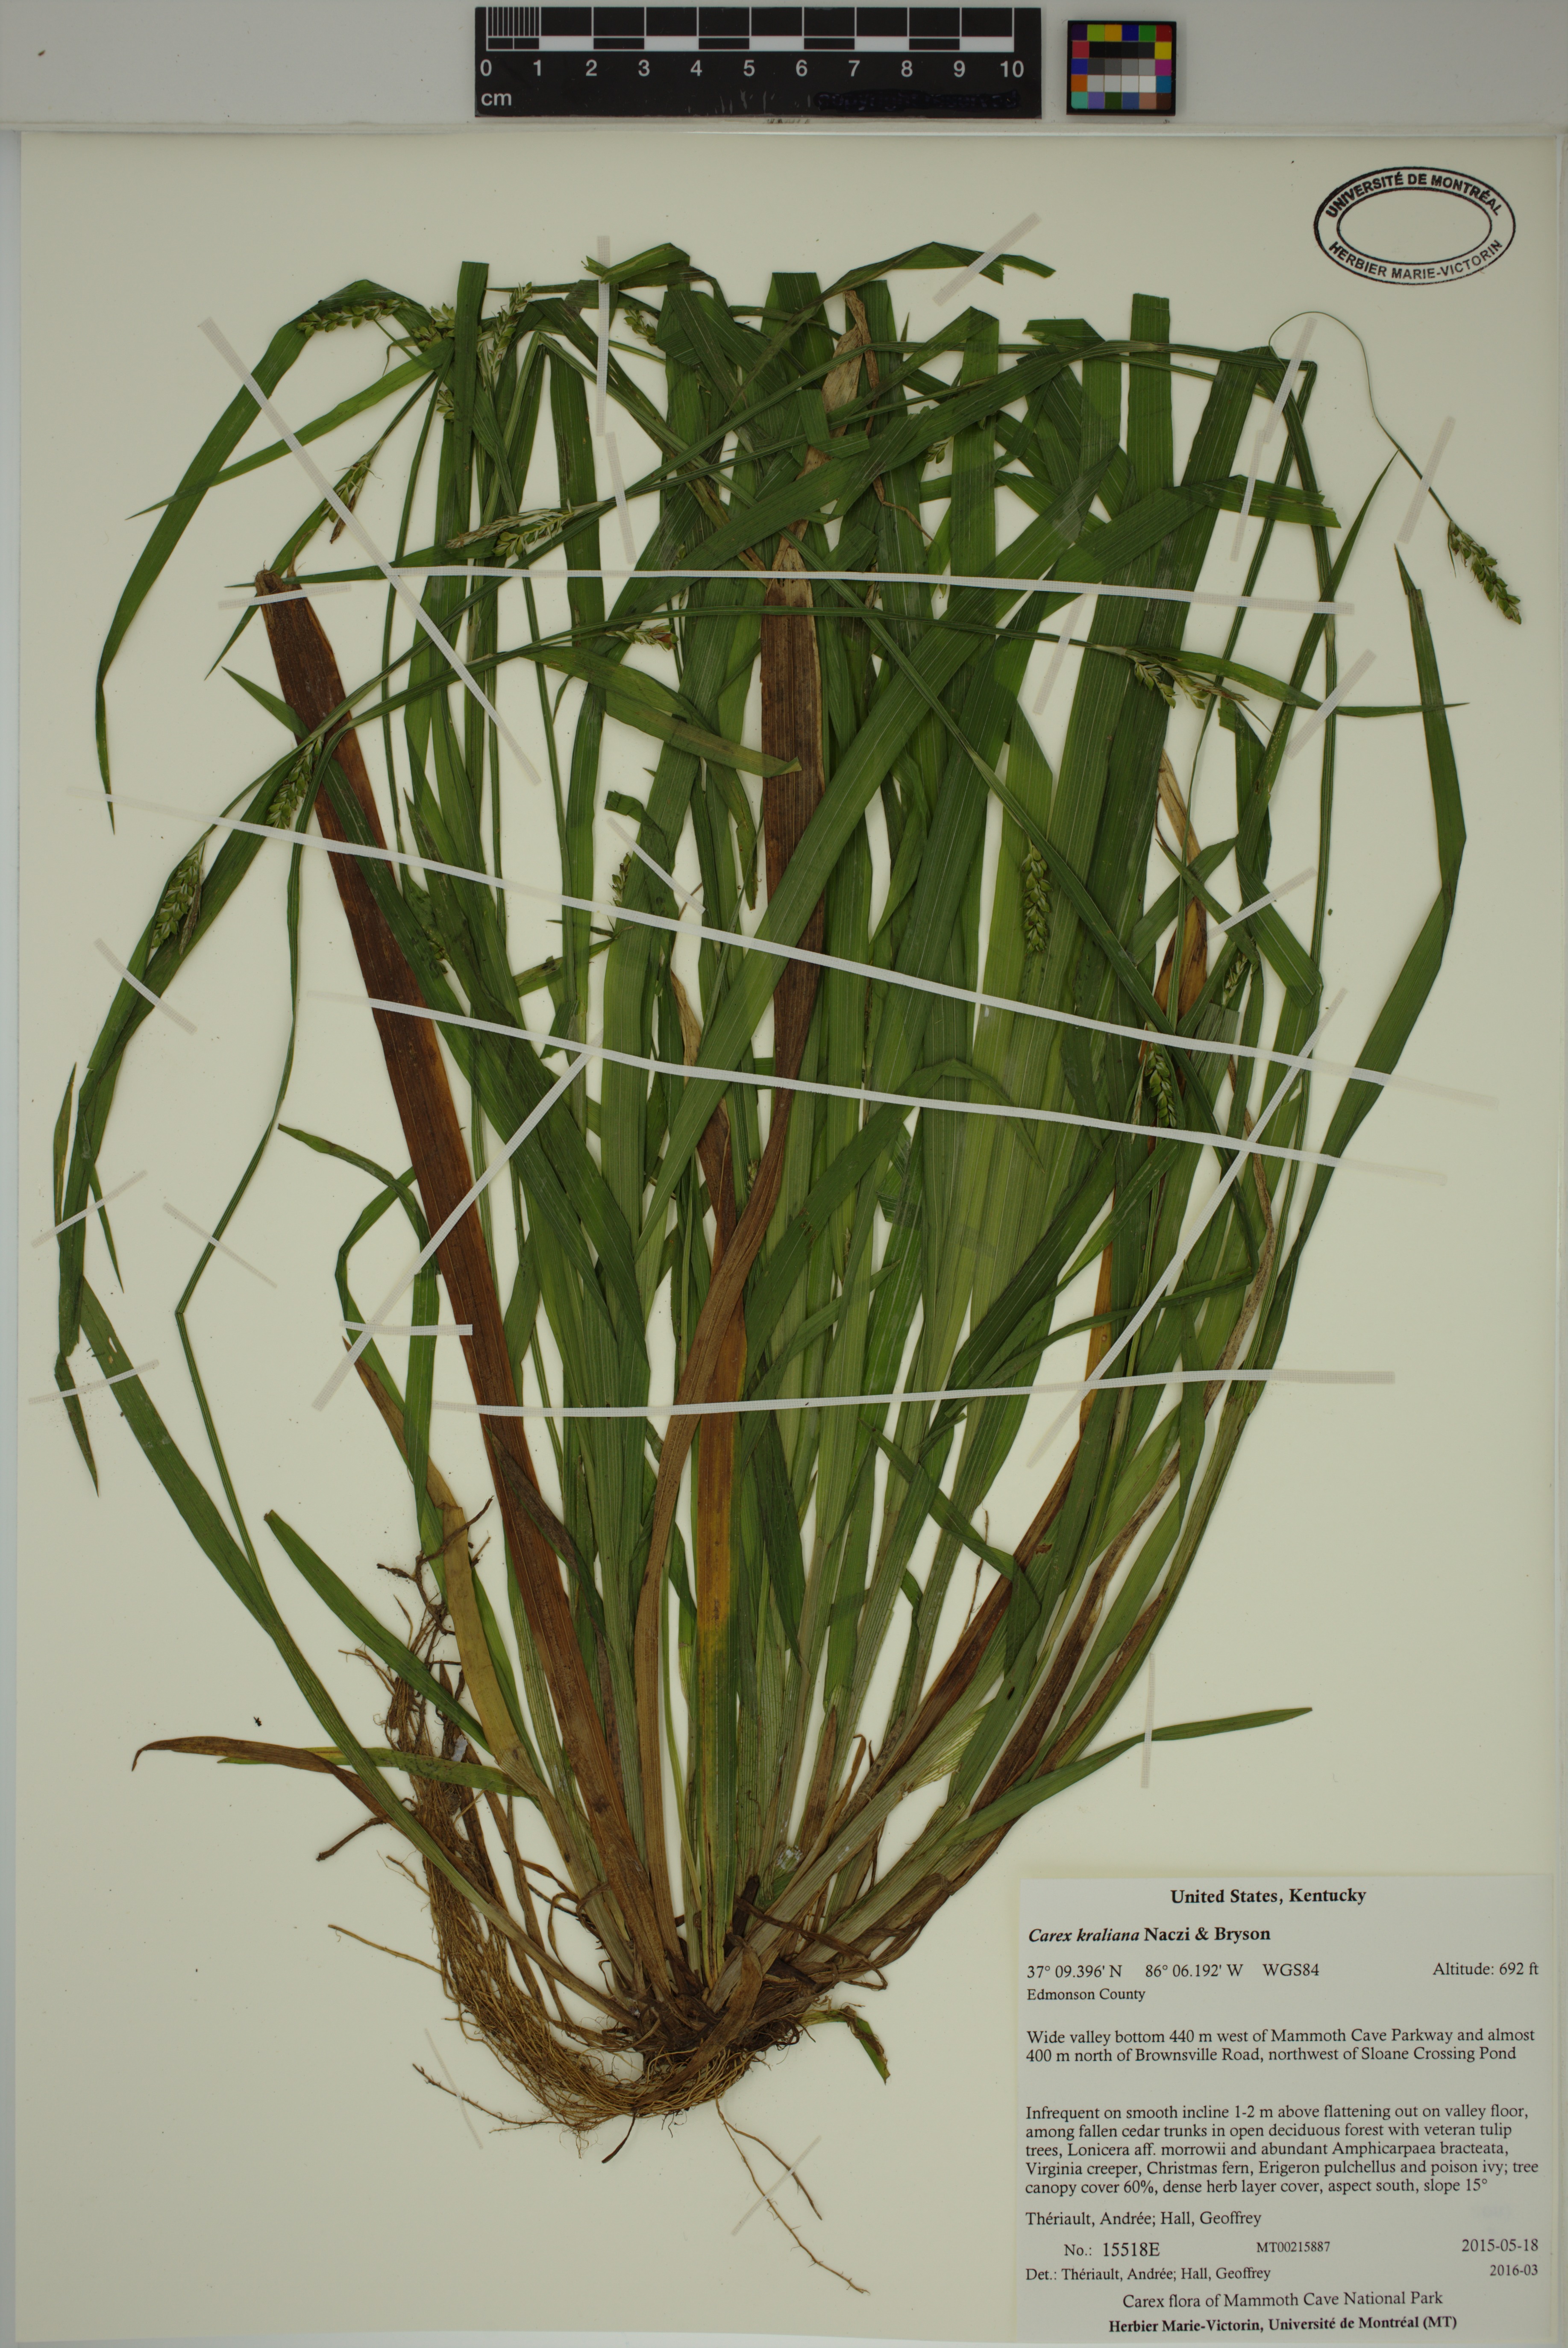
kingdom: Plantae
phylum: Tracheophyta
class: Liliopsida
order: Poales
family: Cyperaceae
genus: Carex
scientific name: Carex kraliana
